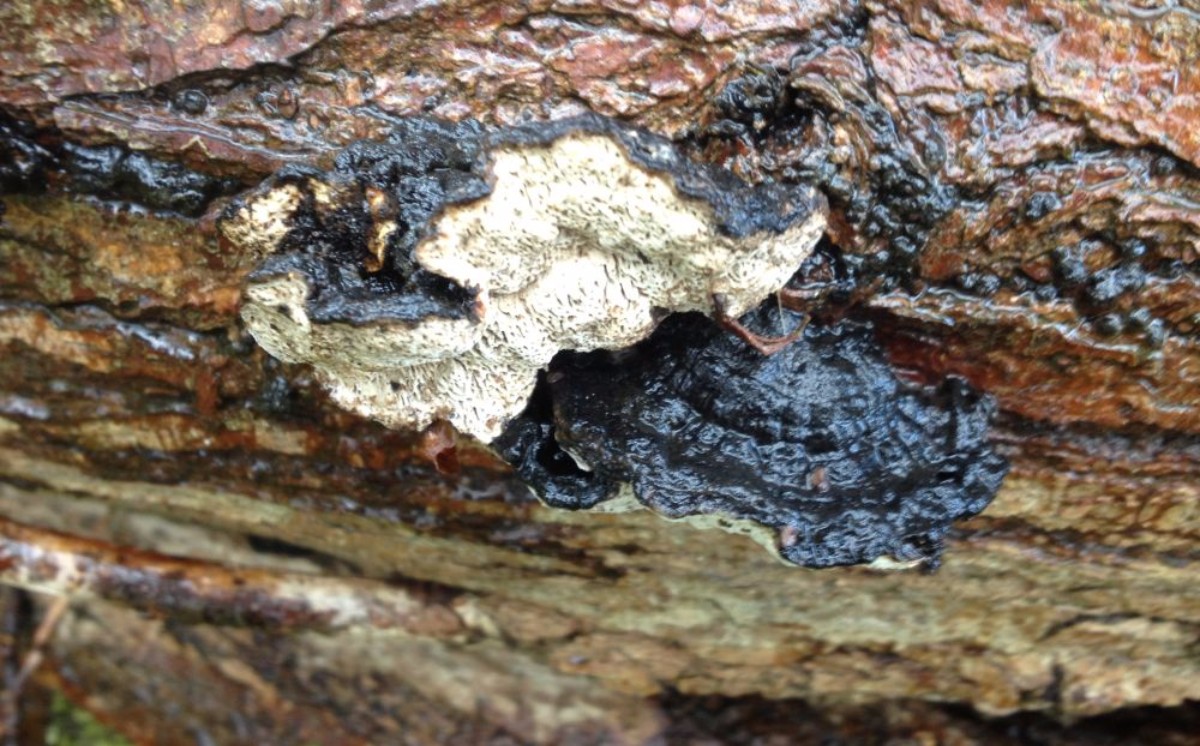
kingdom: Fungi
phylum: Basidiomycota
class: Agaricomycetes
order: Hymenochaetales
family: Hymenochaetaceae
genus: Phellinopsis
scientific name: Phellinopsis conchata
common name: pile-ildporesvamp
